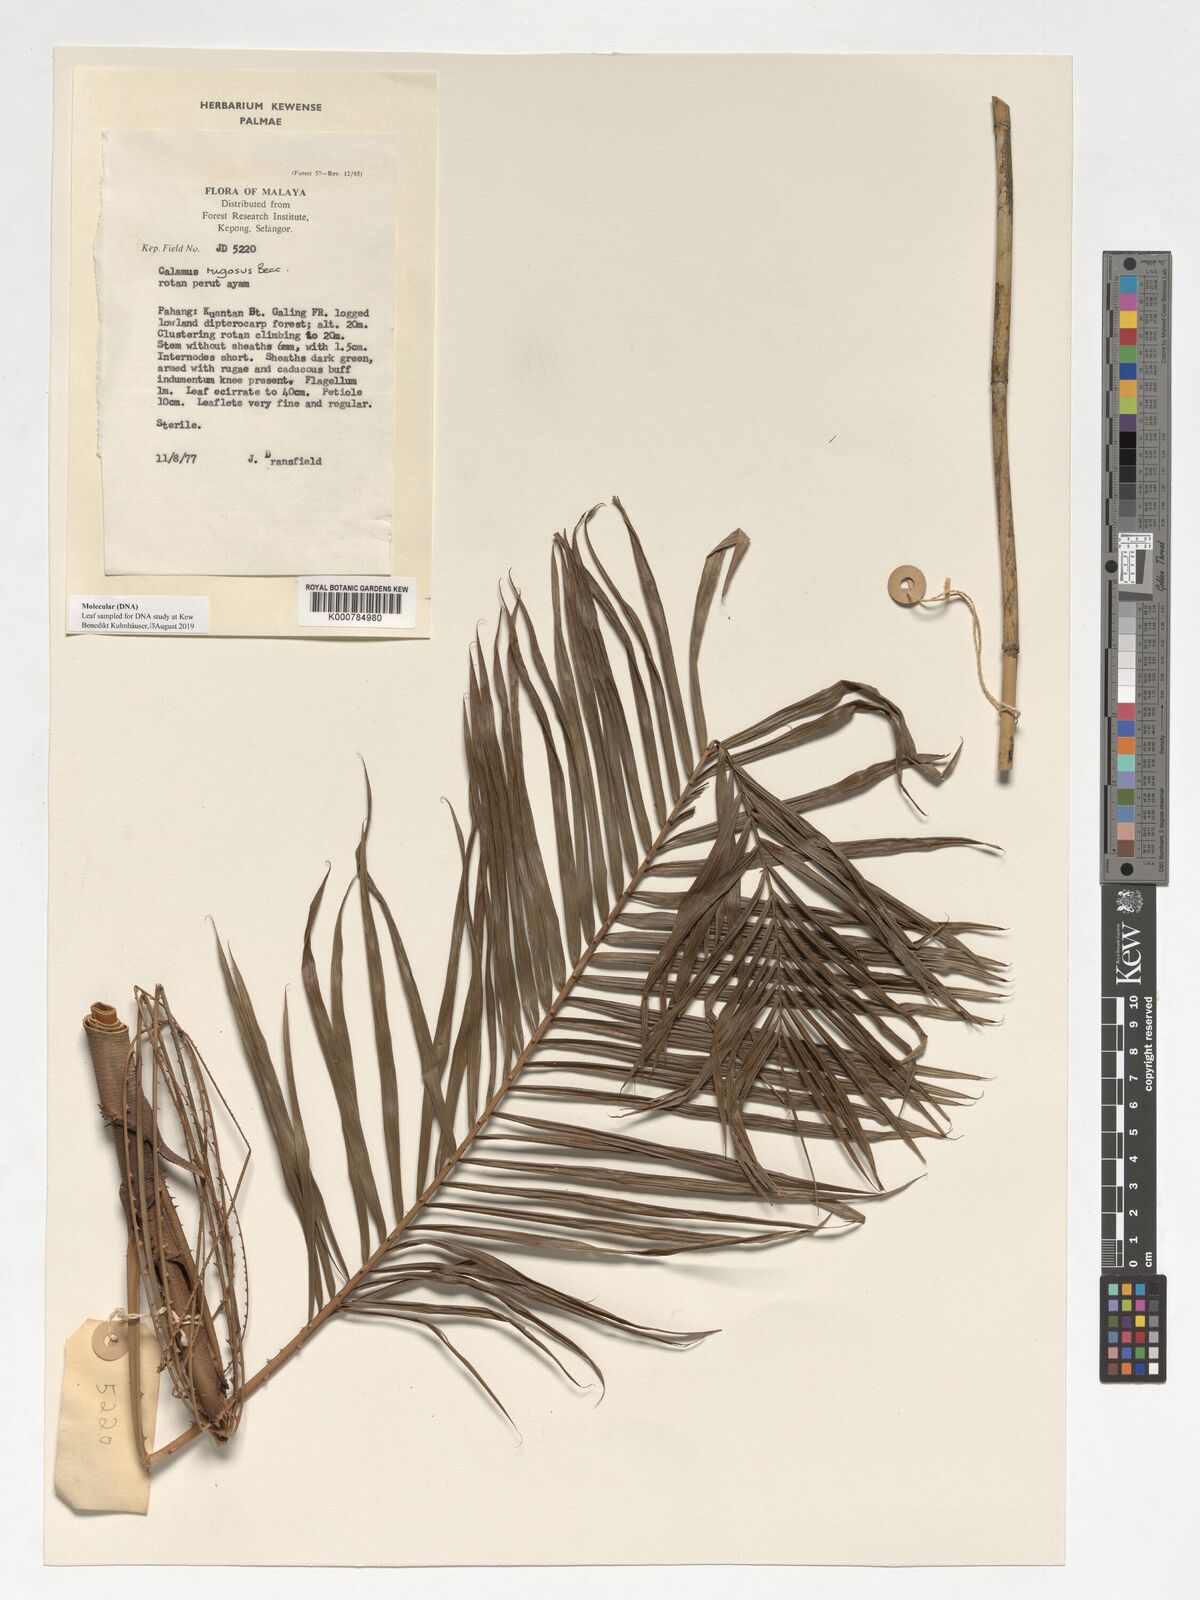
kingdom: Plantae
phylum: Tracheophyta
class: Liliopsida
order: Arecales
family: Arecaceae
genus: Calamus
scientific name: Calamus rugosus
